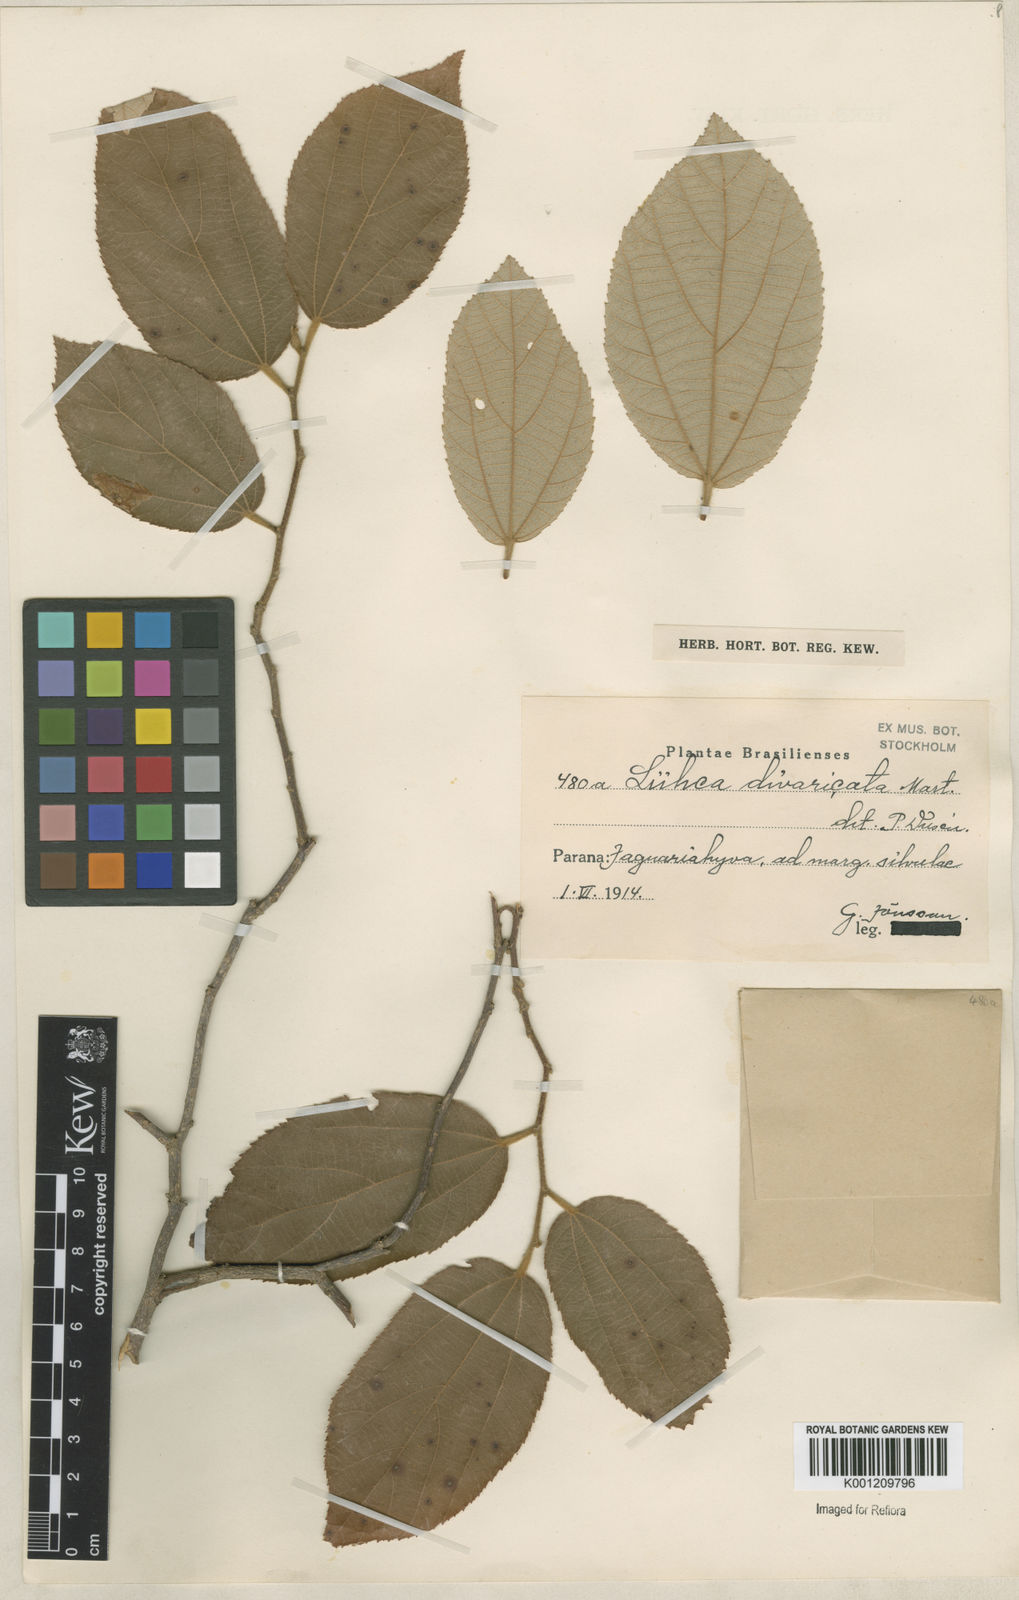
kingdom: Plantae
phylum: Tracheophyta
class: Magnoliopsida
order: Malvales
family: Malvaceae
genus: Luehea
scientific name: Luehea divaricata
